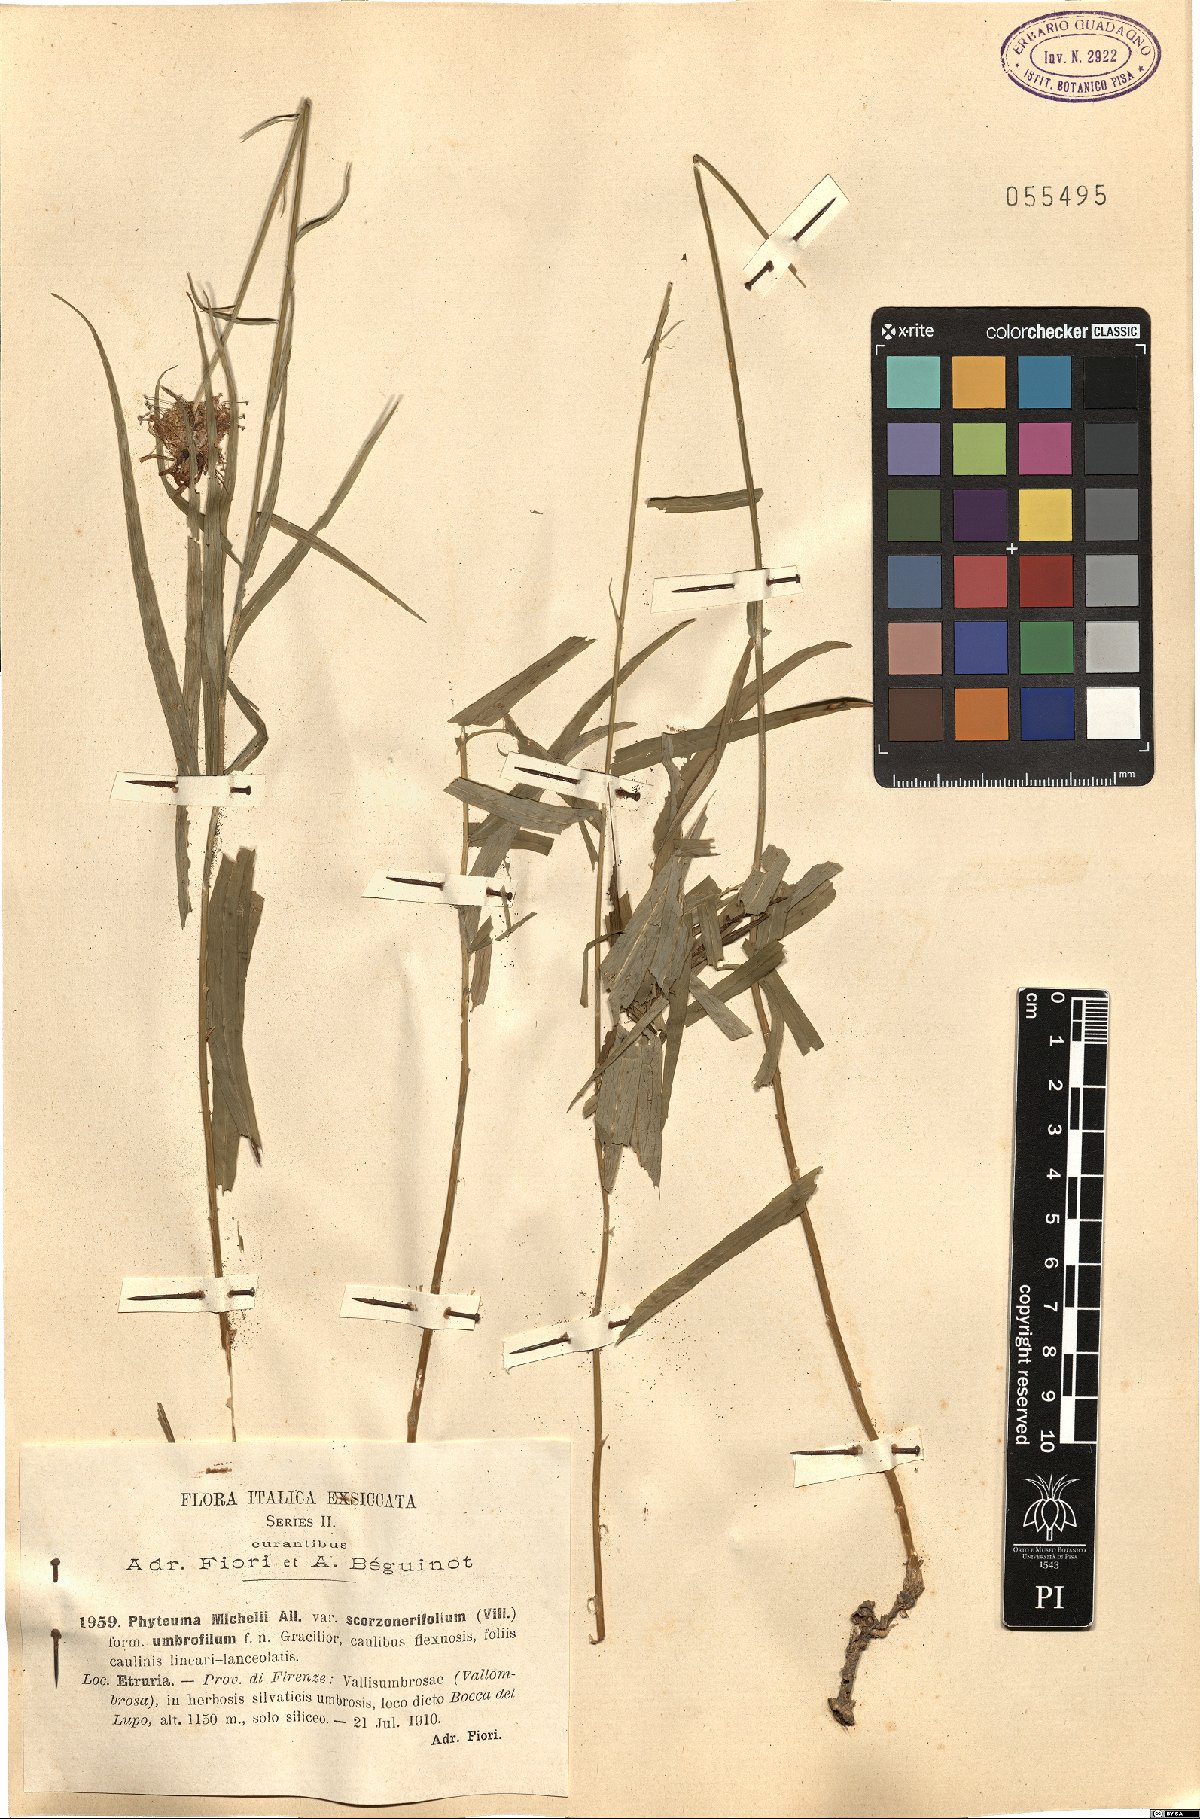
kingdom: Plantae
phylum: Tracheophyta
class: Magnoliopsida
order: Asterales
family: Campanulaceae
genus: Phyteuma
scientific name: Phyteuma scorzonerifolium
